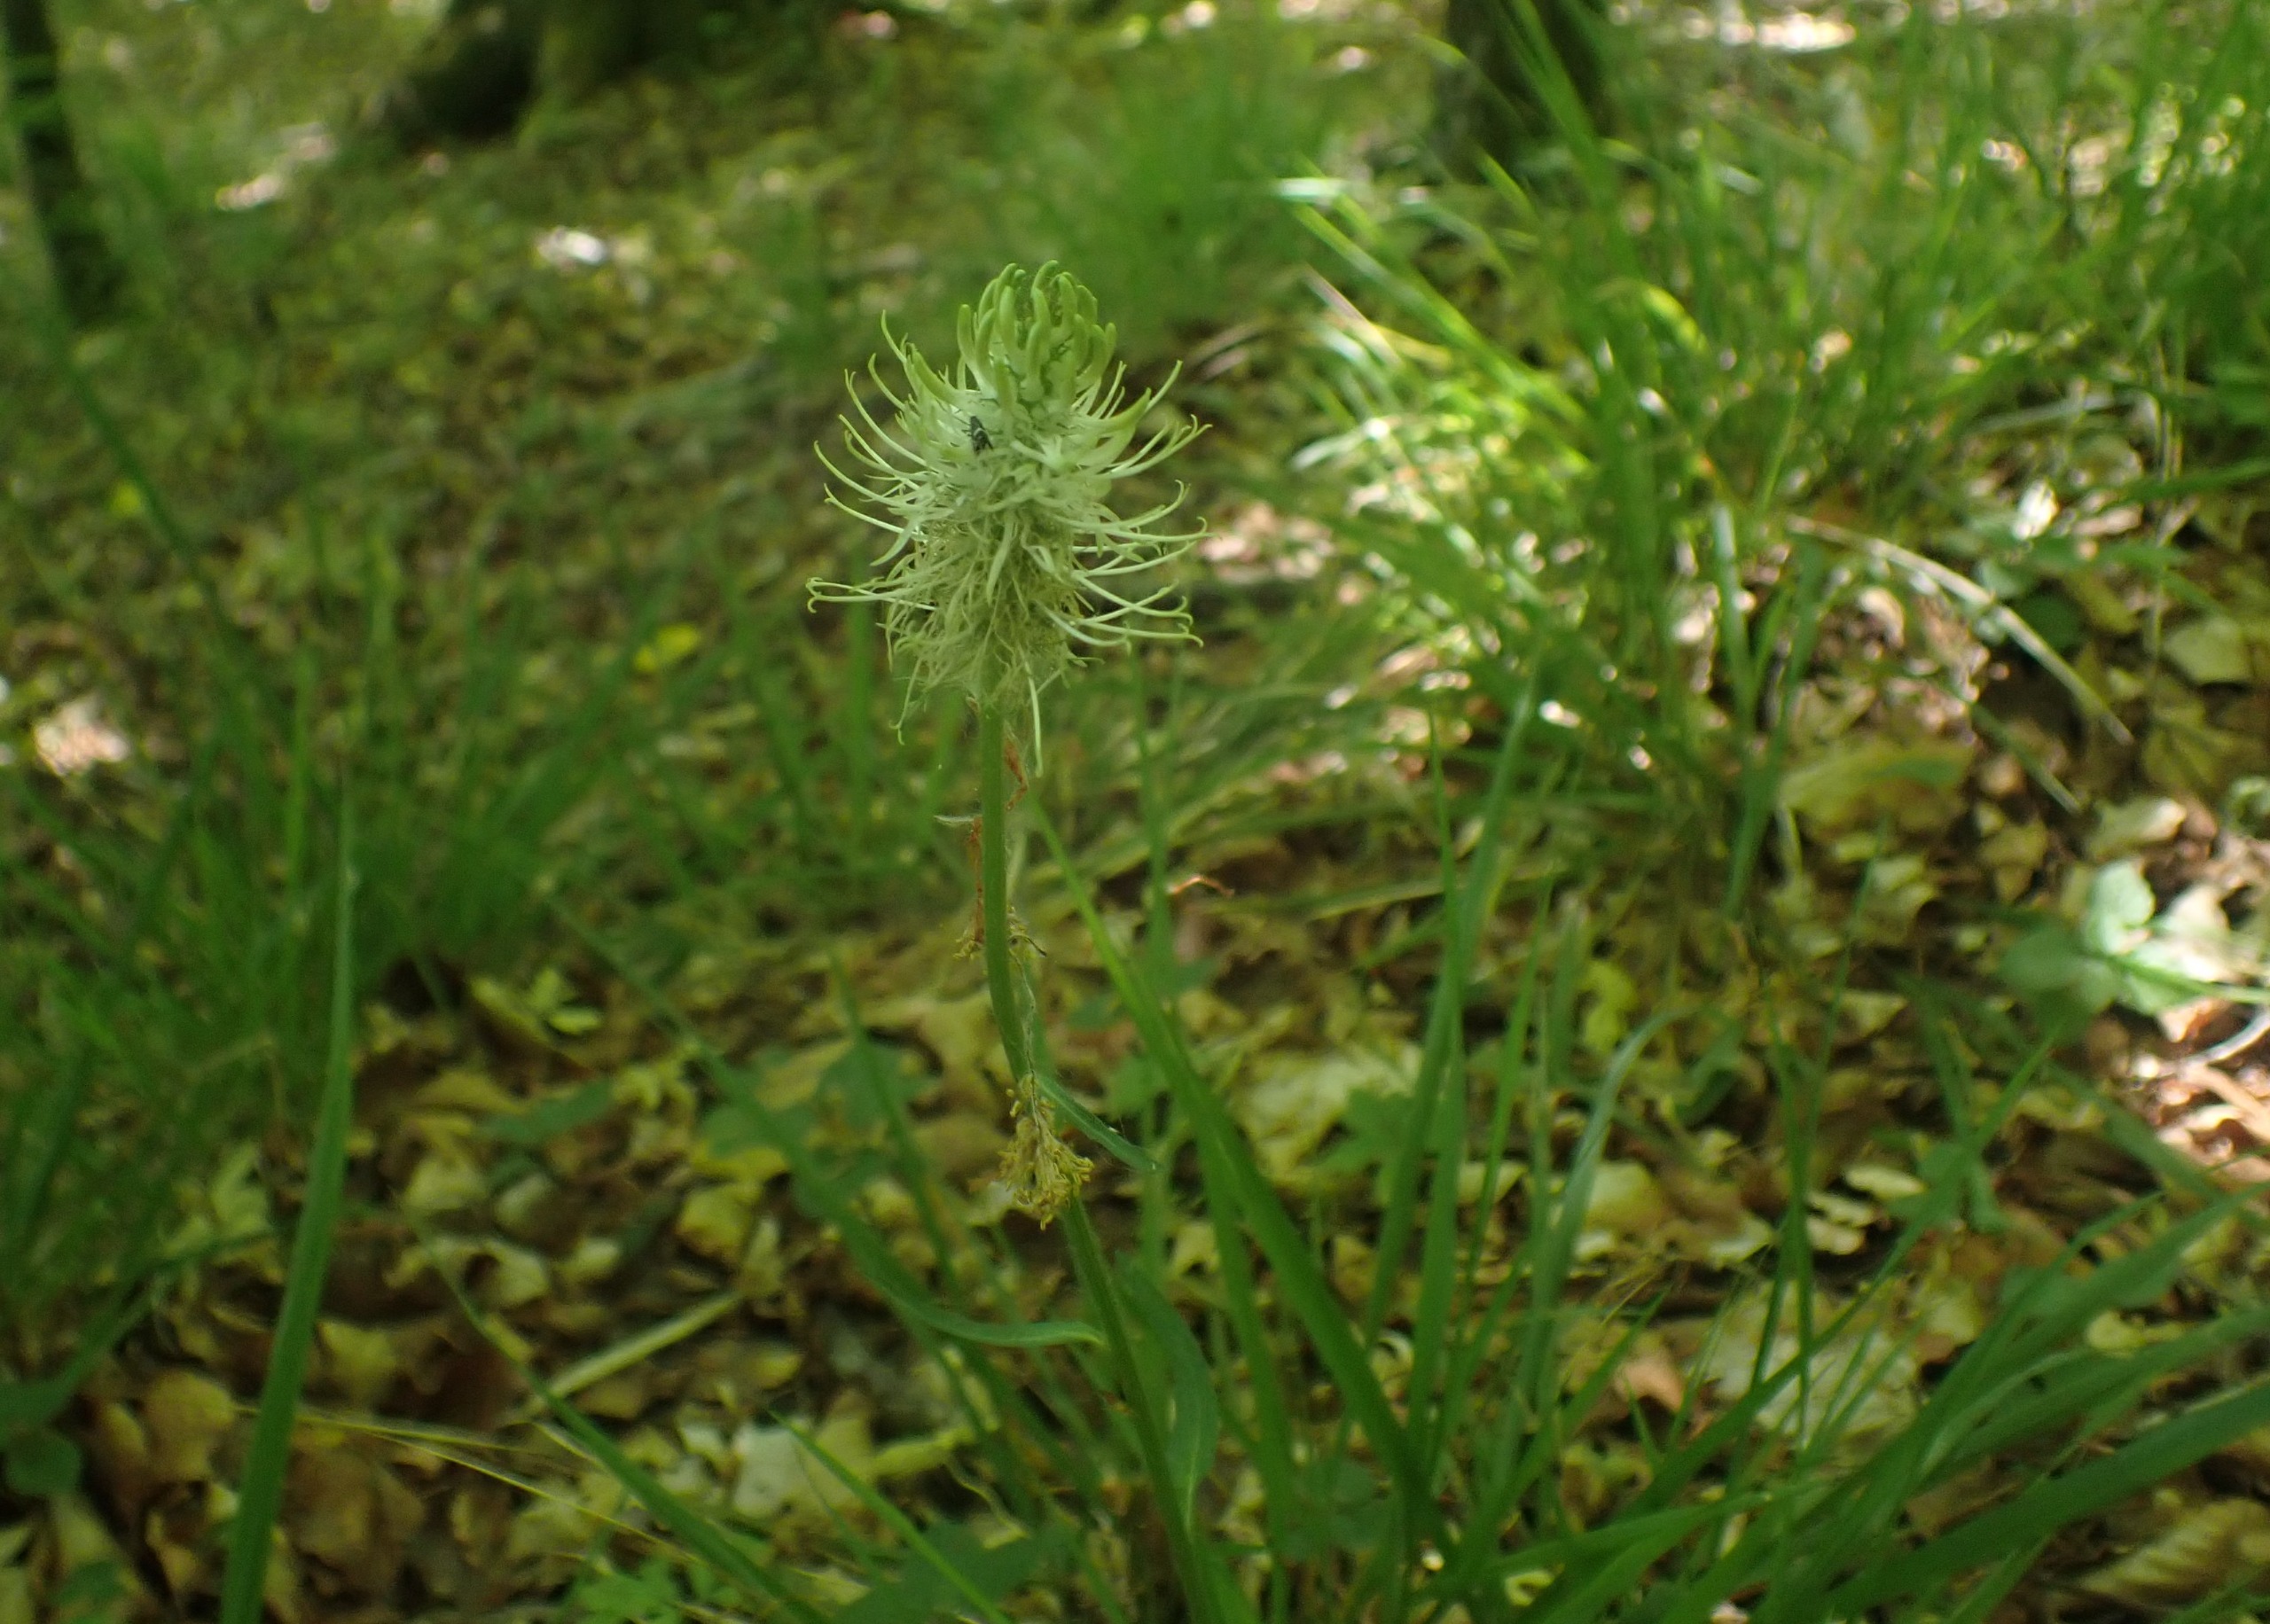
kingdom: Plantae
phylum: Tracheophyta
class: Magnoliopsida
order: Asterales
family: Campanulaceae
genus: Phyteuma
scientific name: Phyteuma spicatum
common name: Aks-rapunsel
